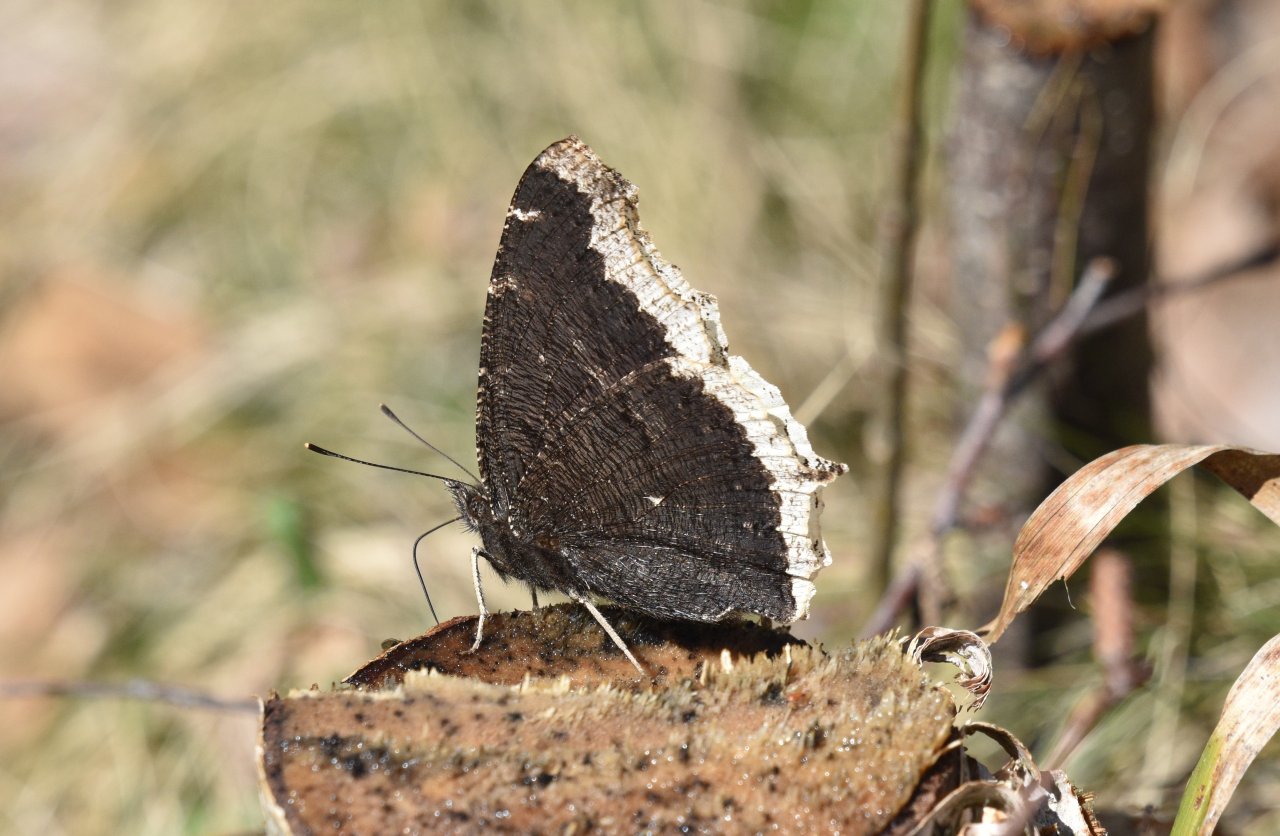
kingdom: Animalia
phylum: Arthropoda
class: Insecta
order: Lepidoptera
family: Nymphalidae
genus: Nymphalis
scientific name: Nymphalis antiopa
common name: Mourning Cloak
